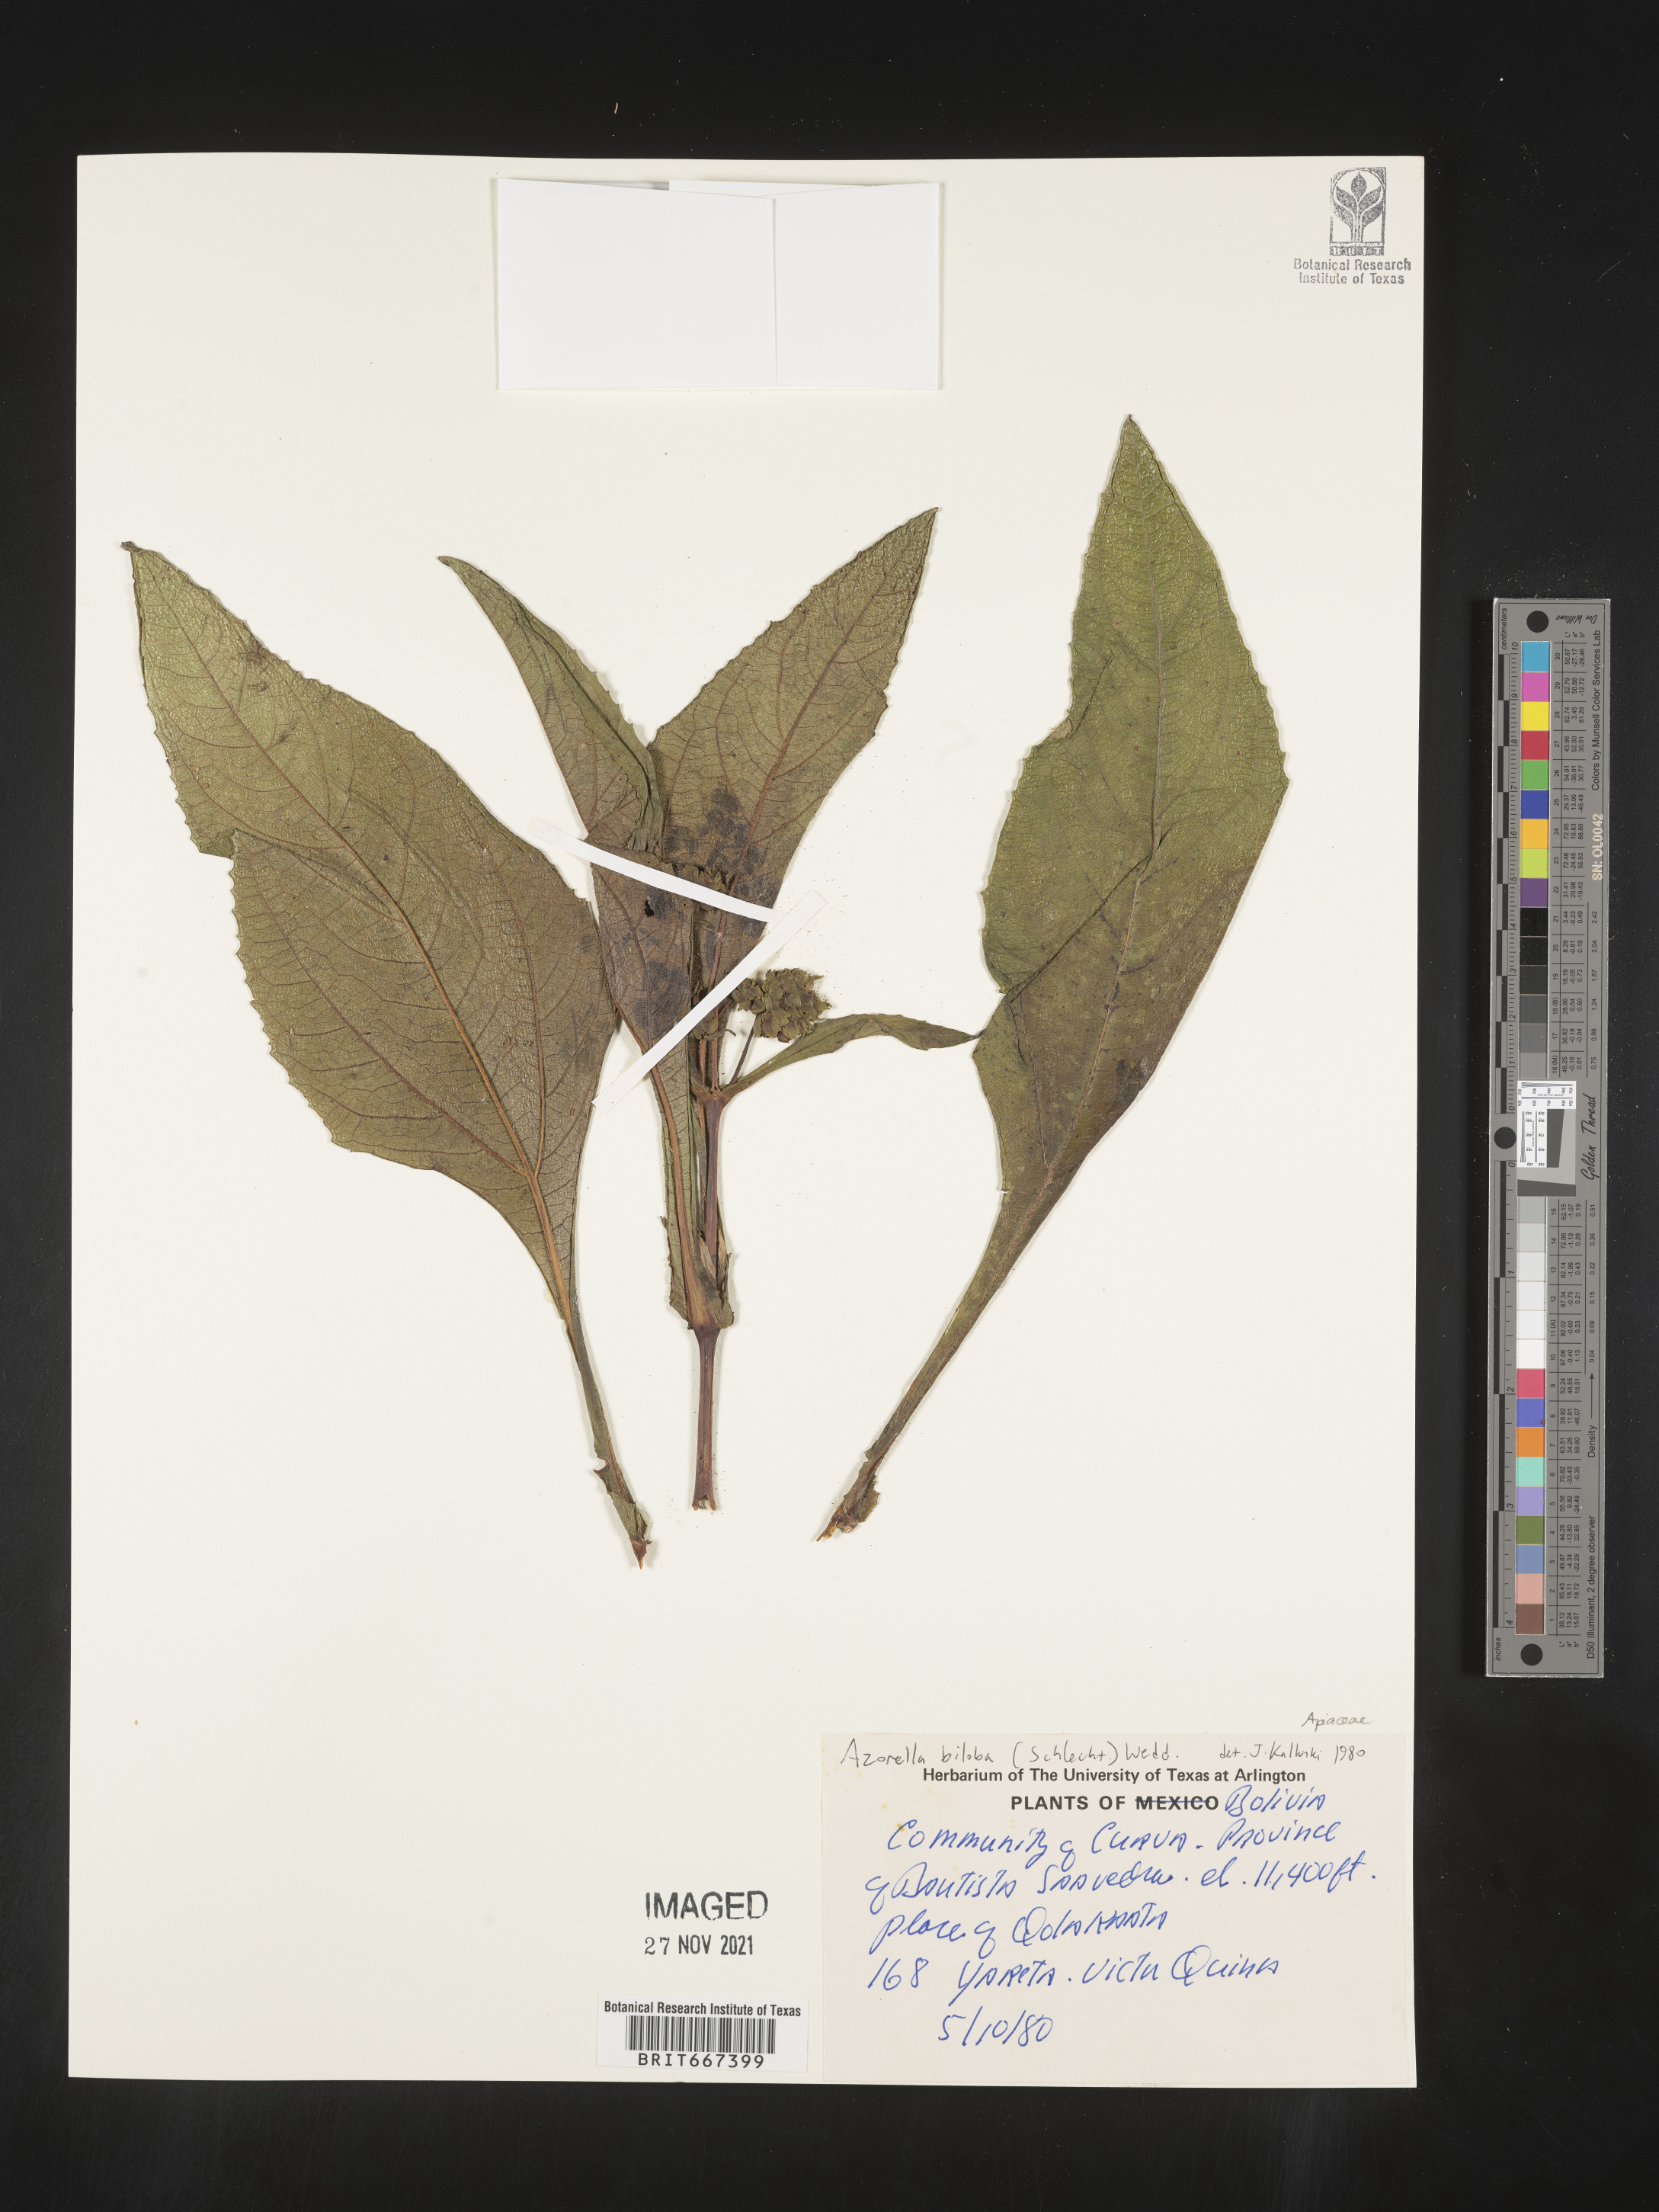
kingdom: Plantae
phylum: Tracheophyta
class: Magnoliopsida
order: Apiales
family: Apiaceae
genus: Azorella
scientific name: Azorella
